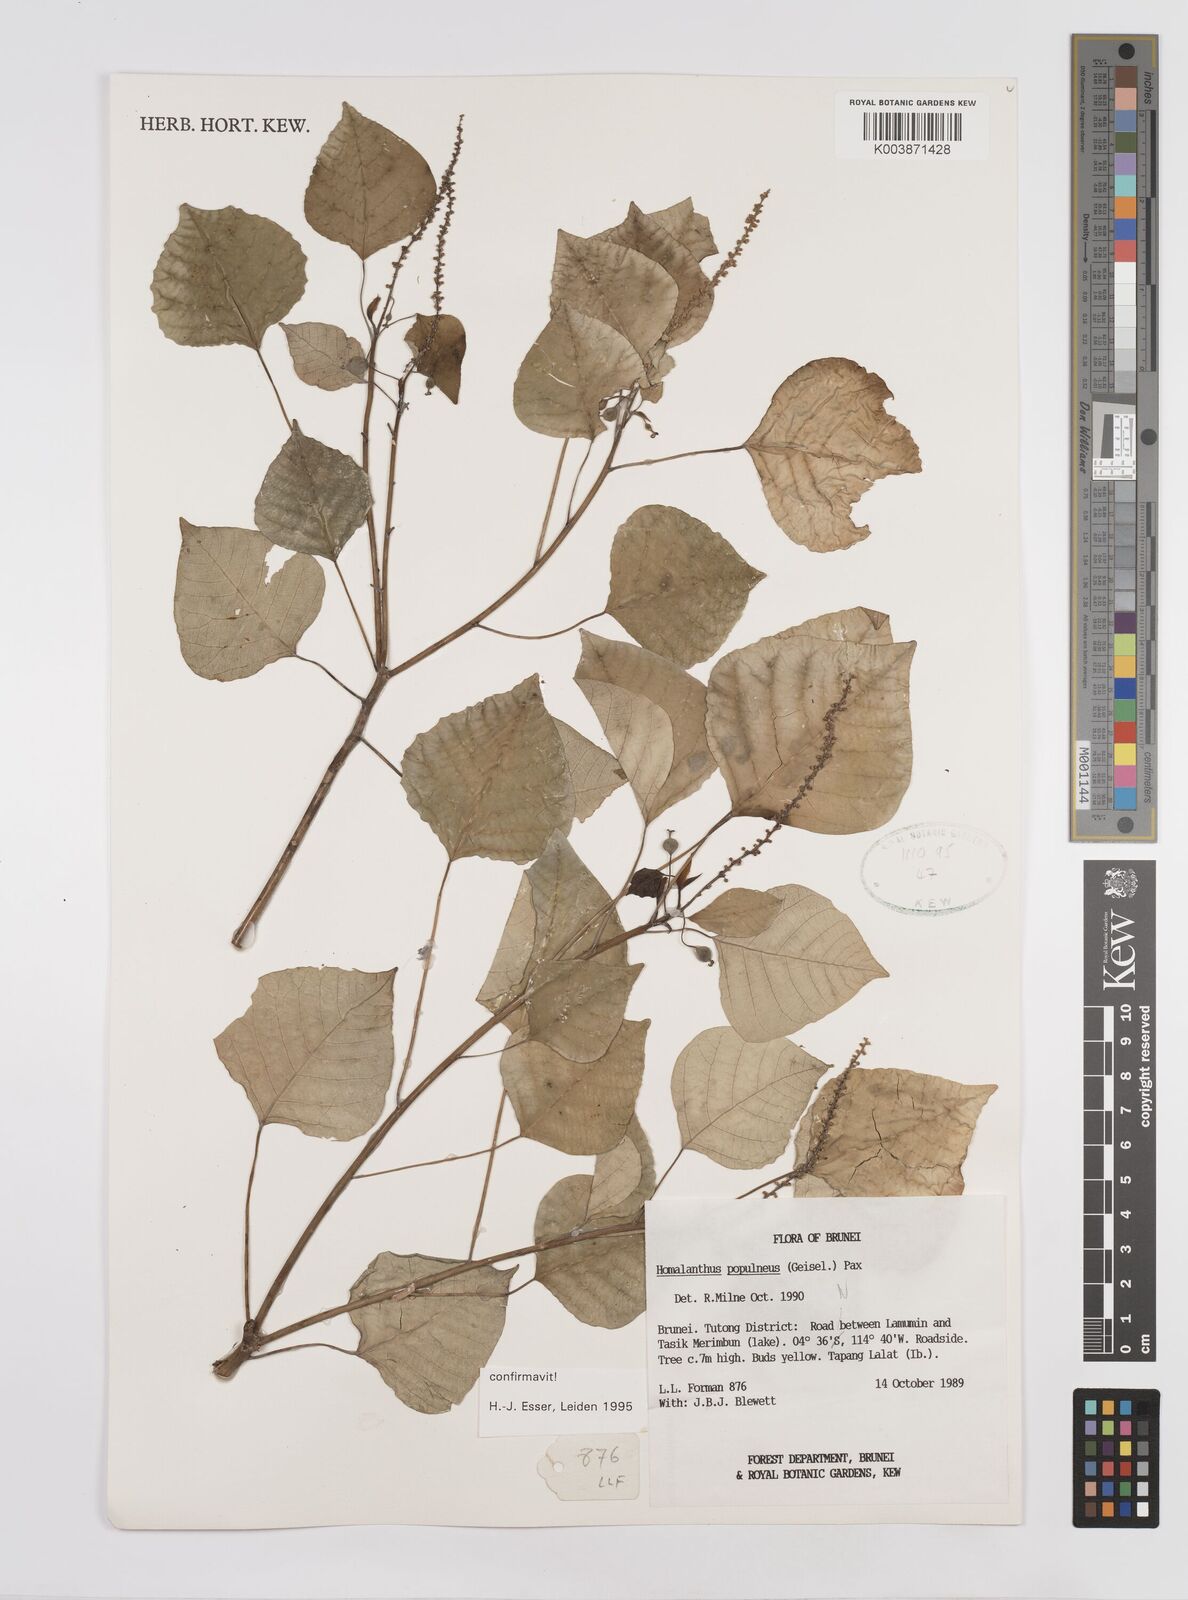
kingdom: Plantae
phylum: Tracheophyta
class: Magnoliopsida
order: Malpighiales
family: Euphorbiaceae
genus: Homalanthus
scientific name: Homalanthus populneus
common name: Spurge
